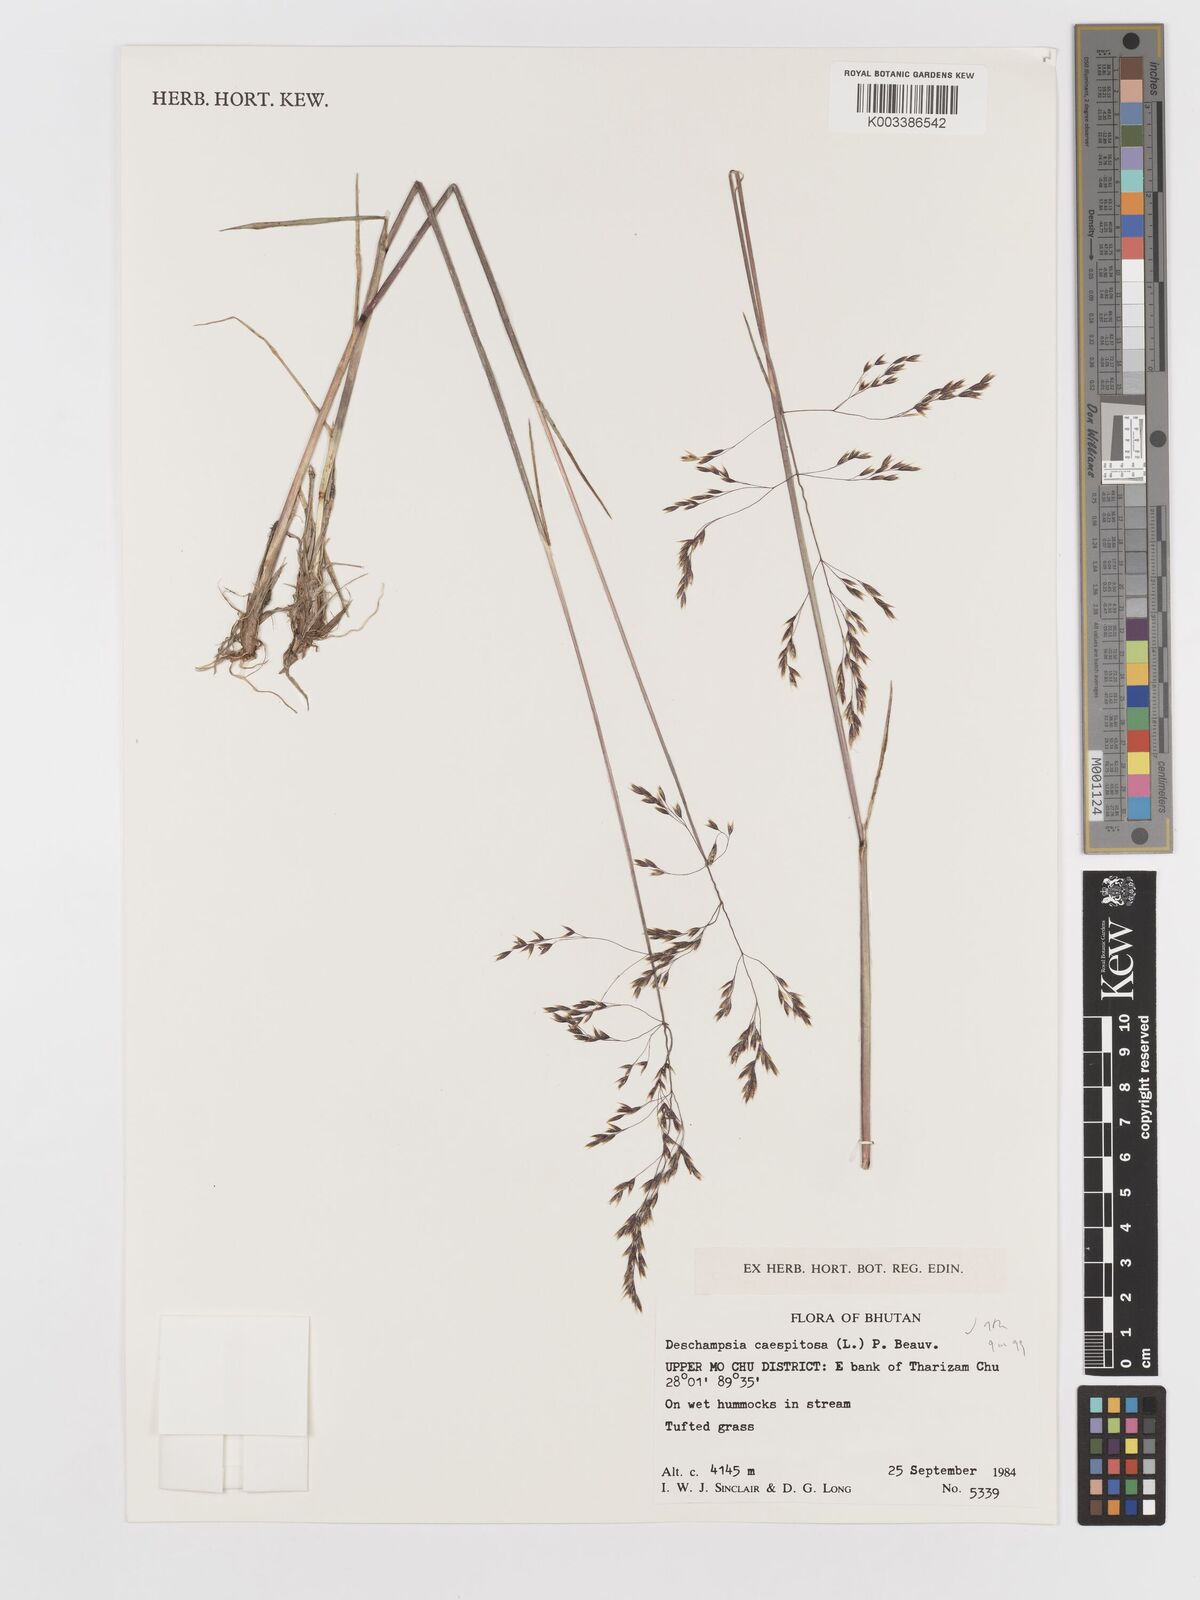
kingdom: Plantae
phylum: Tracheophyta
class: Liliopsida
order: Poales
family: Poaceae
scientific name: Poaceae
